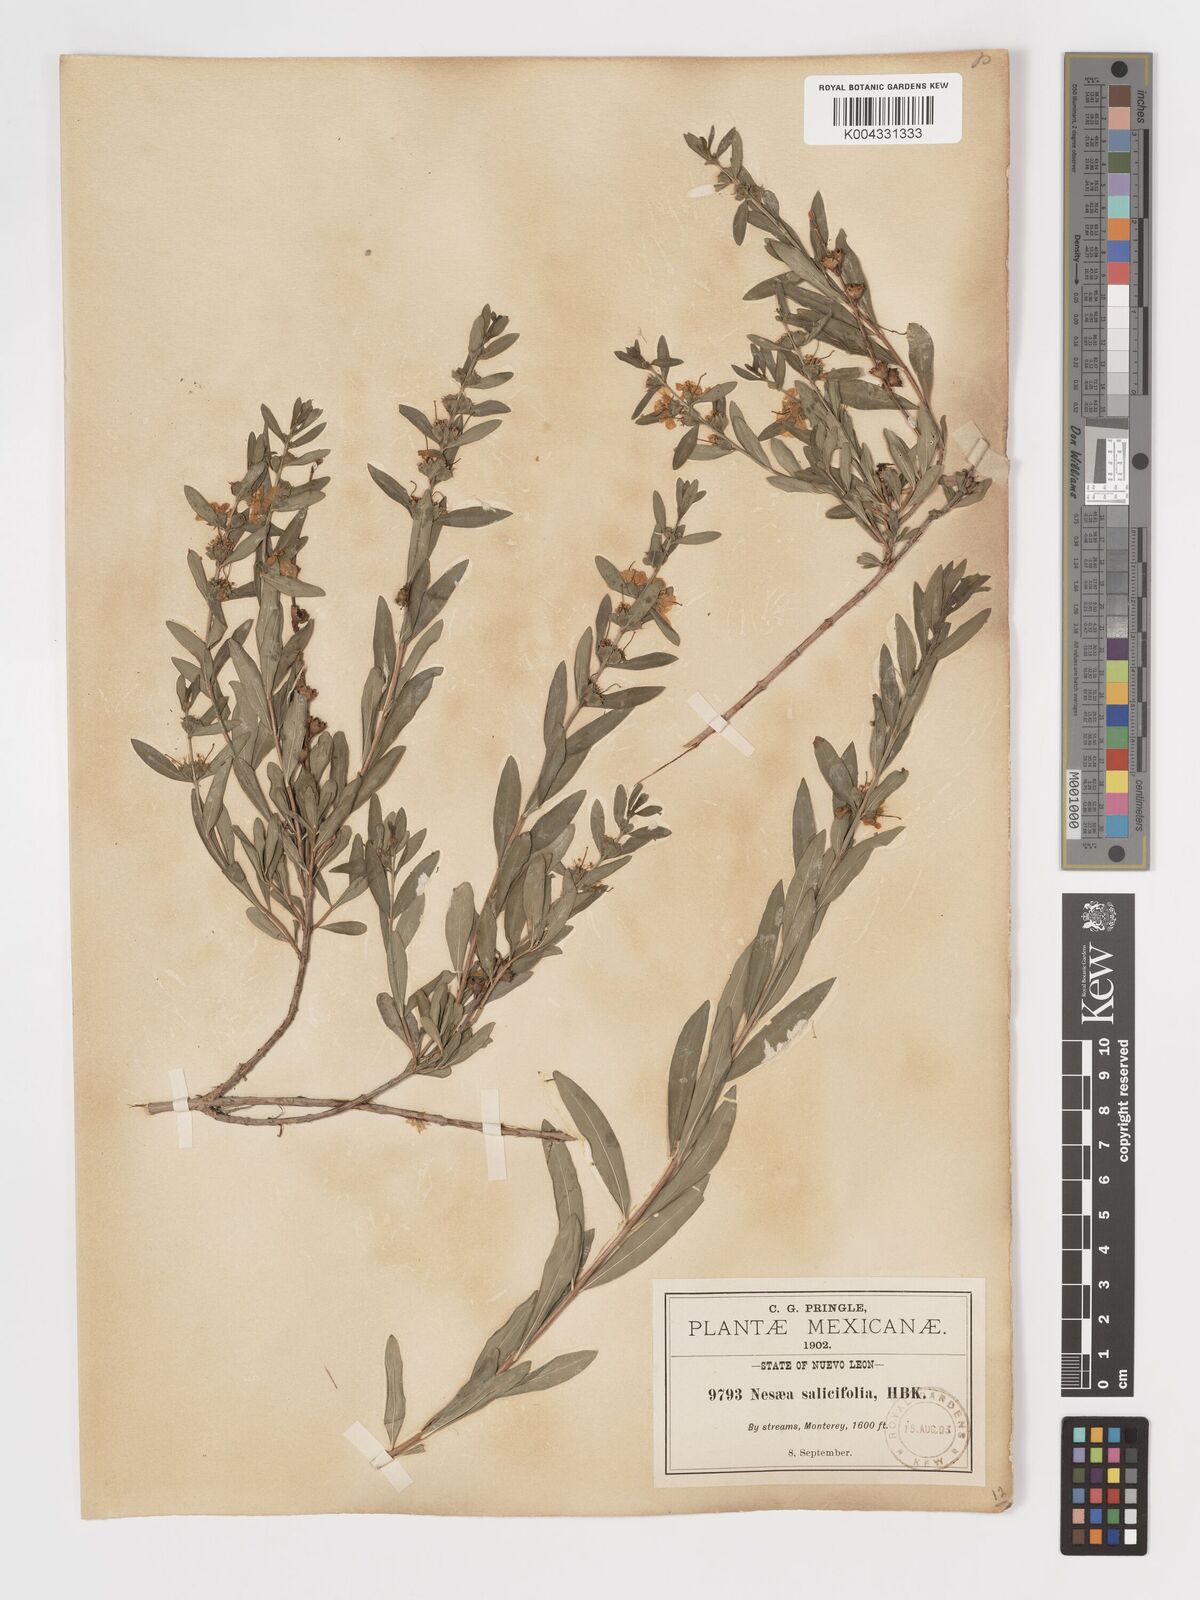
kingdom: Plantae
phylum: Tracheophyta
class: Magnoliopsida
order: Myrtales
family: Lythraceae
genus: Heimia
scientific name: Heimia salicifolia
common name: Willow-leaf heimia
